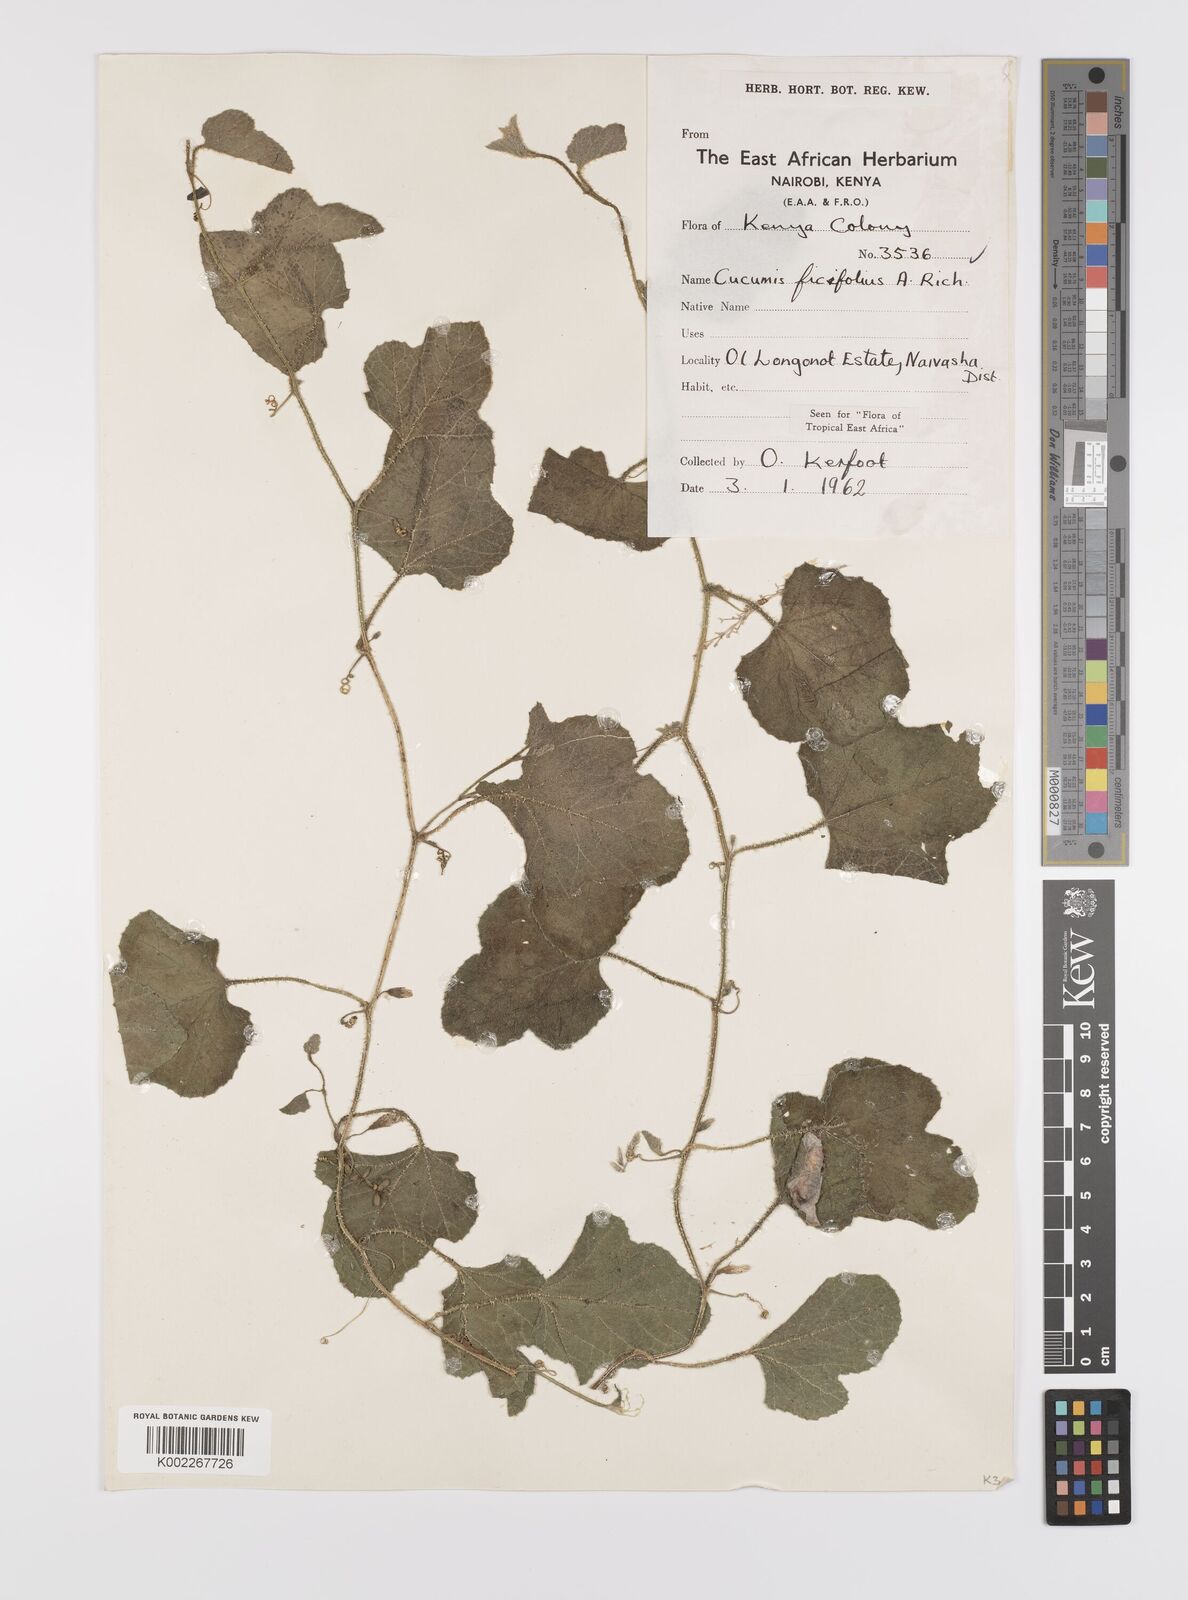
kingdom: Plantae
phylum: Tracheophyta
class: Magnoliopsida
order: Cucurbitales
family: Cucurbitaceae
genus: Cucumis
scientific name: Cucumis ficifolius
